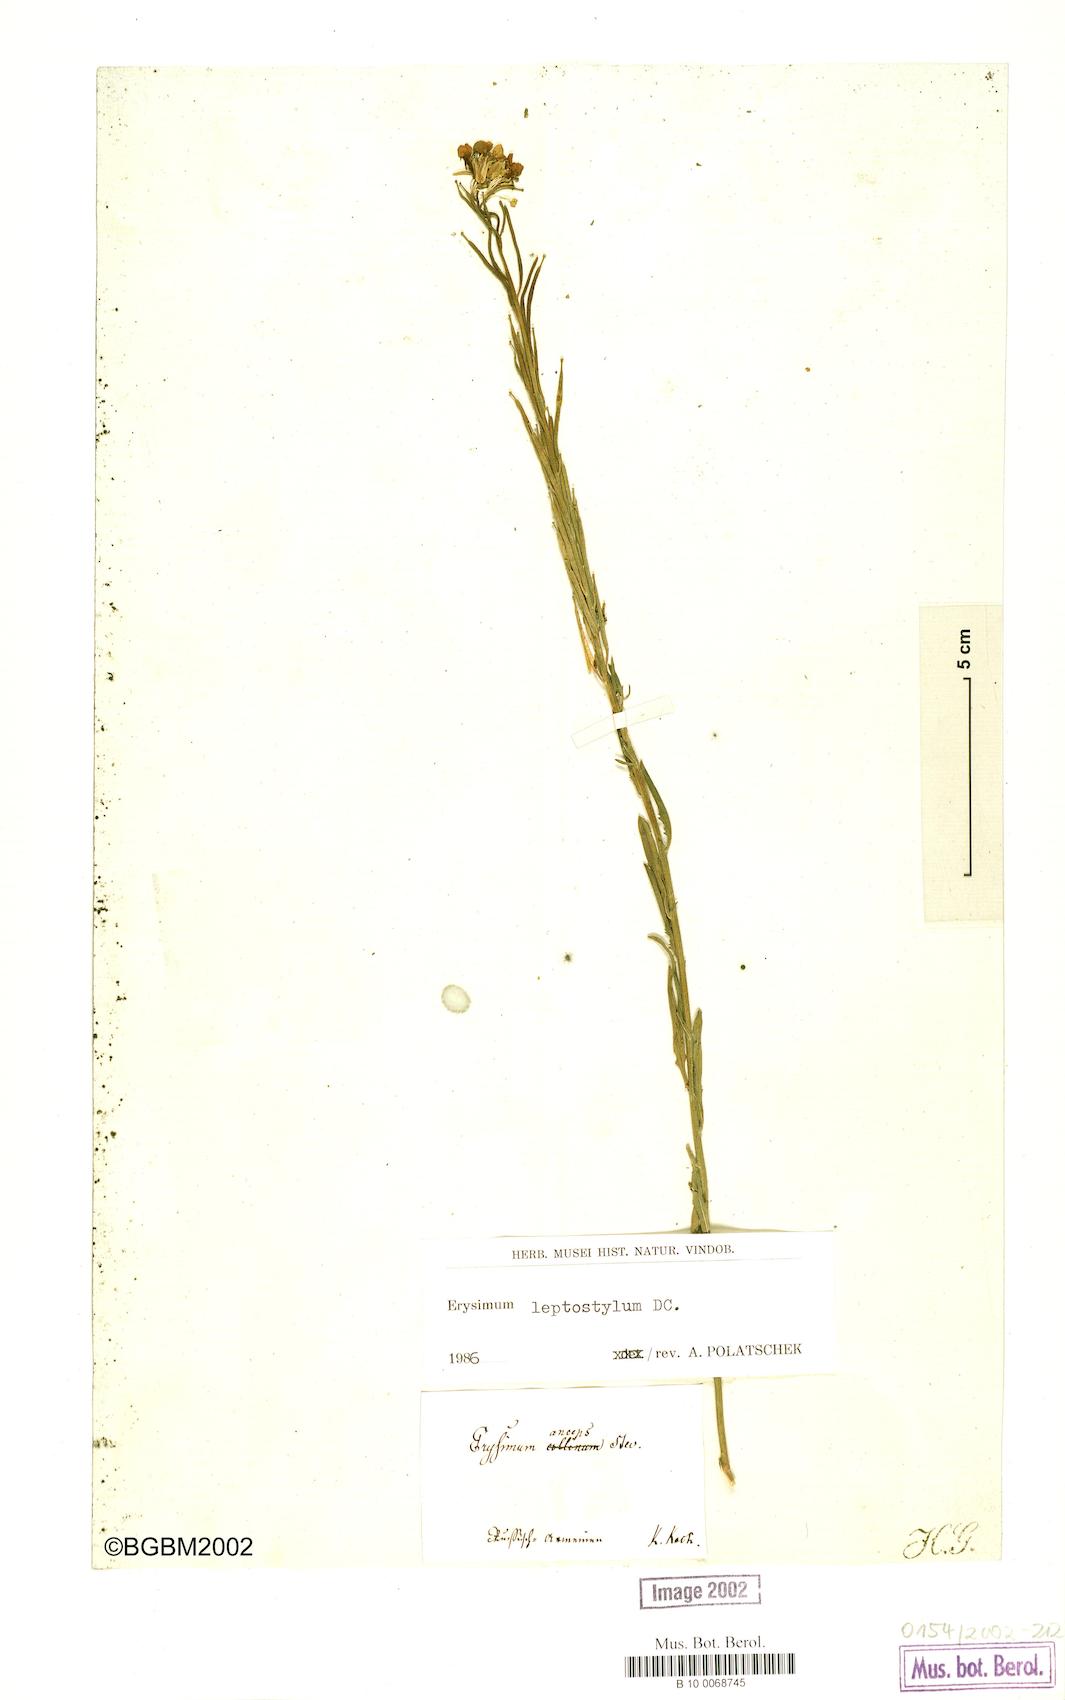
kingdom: Plantae
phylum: Tracheophyta
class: Magnoliopsida
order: Brassicales
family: Brassicaceae
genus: Erysimum
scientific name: Erysimum leptostylum
